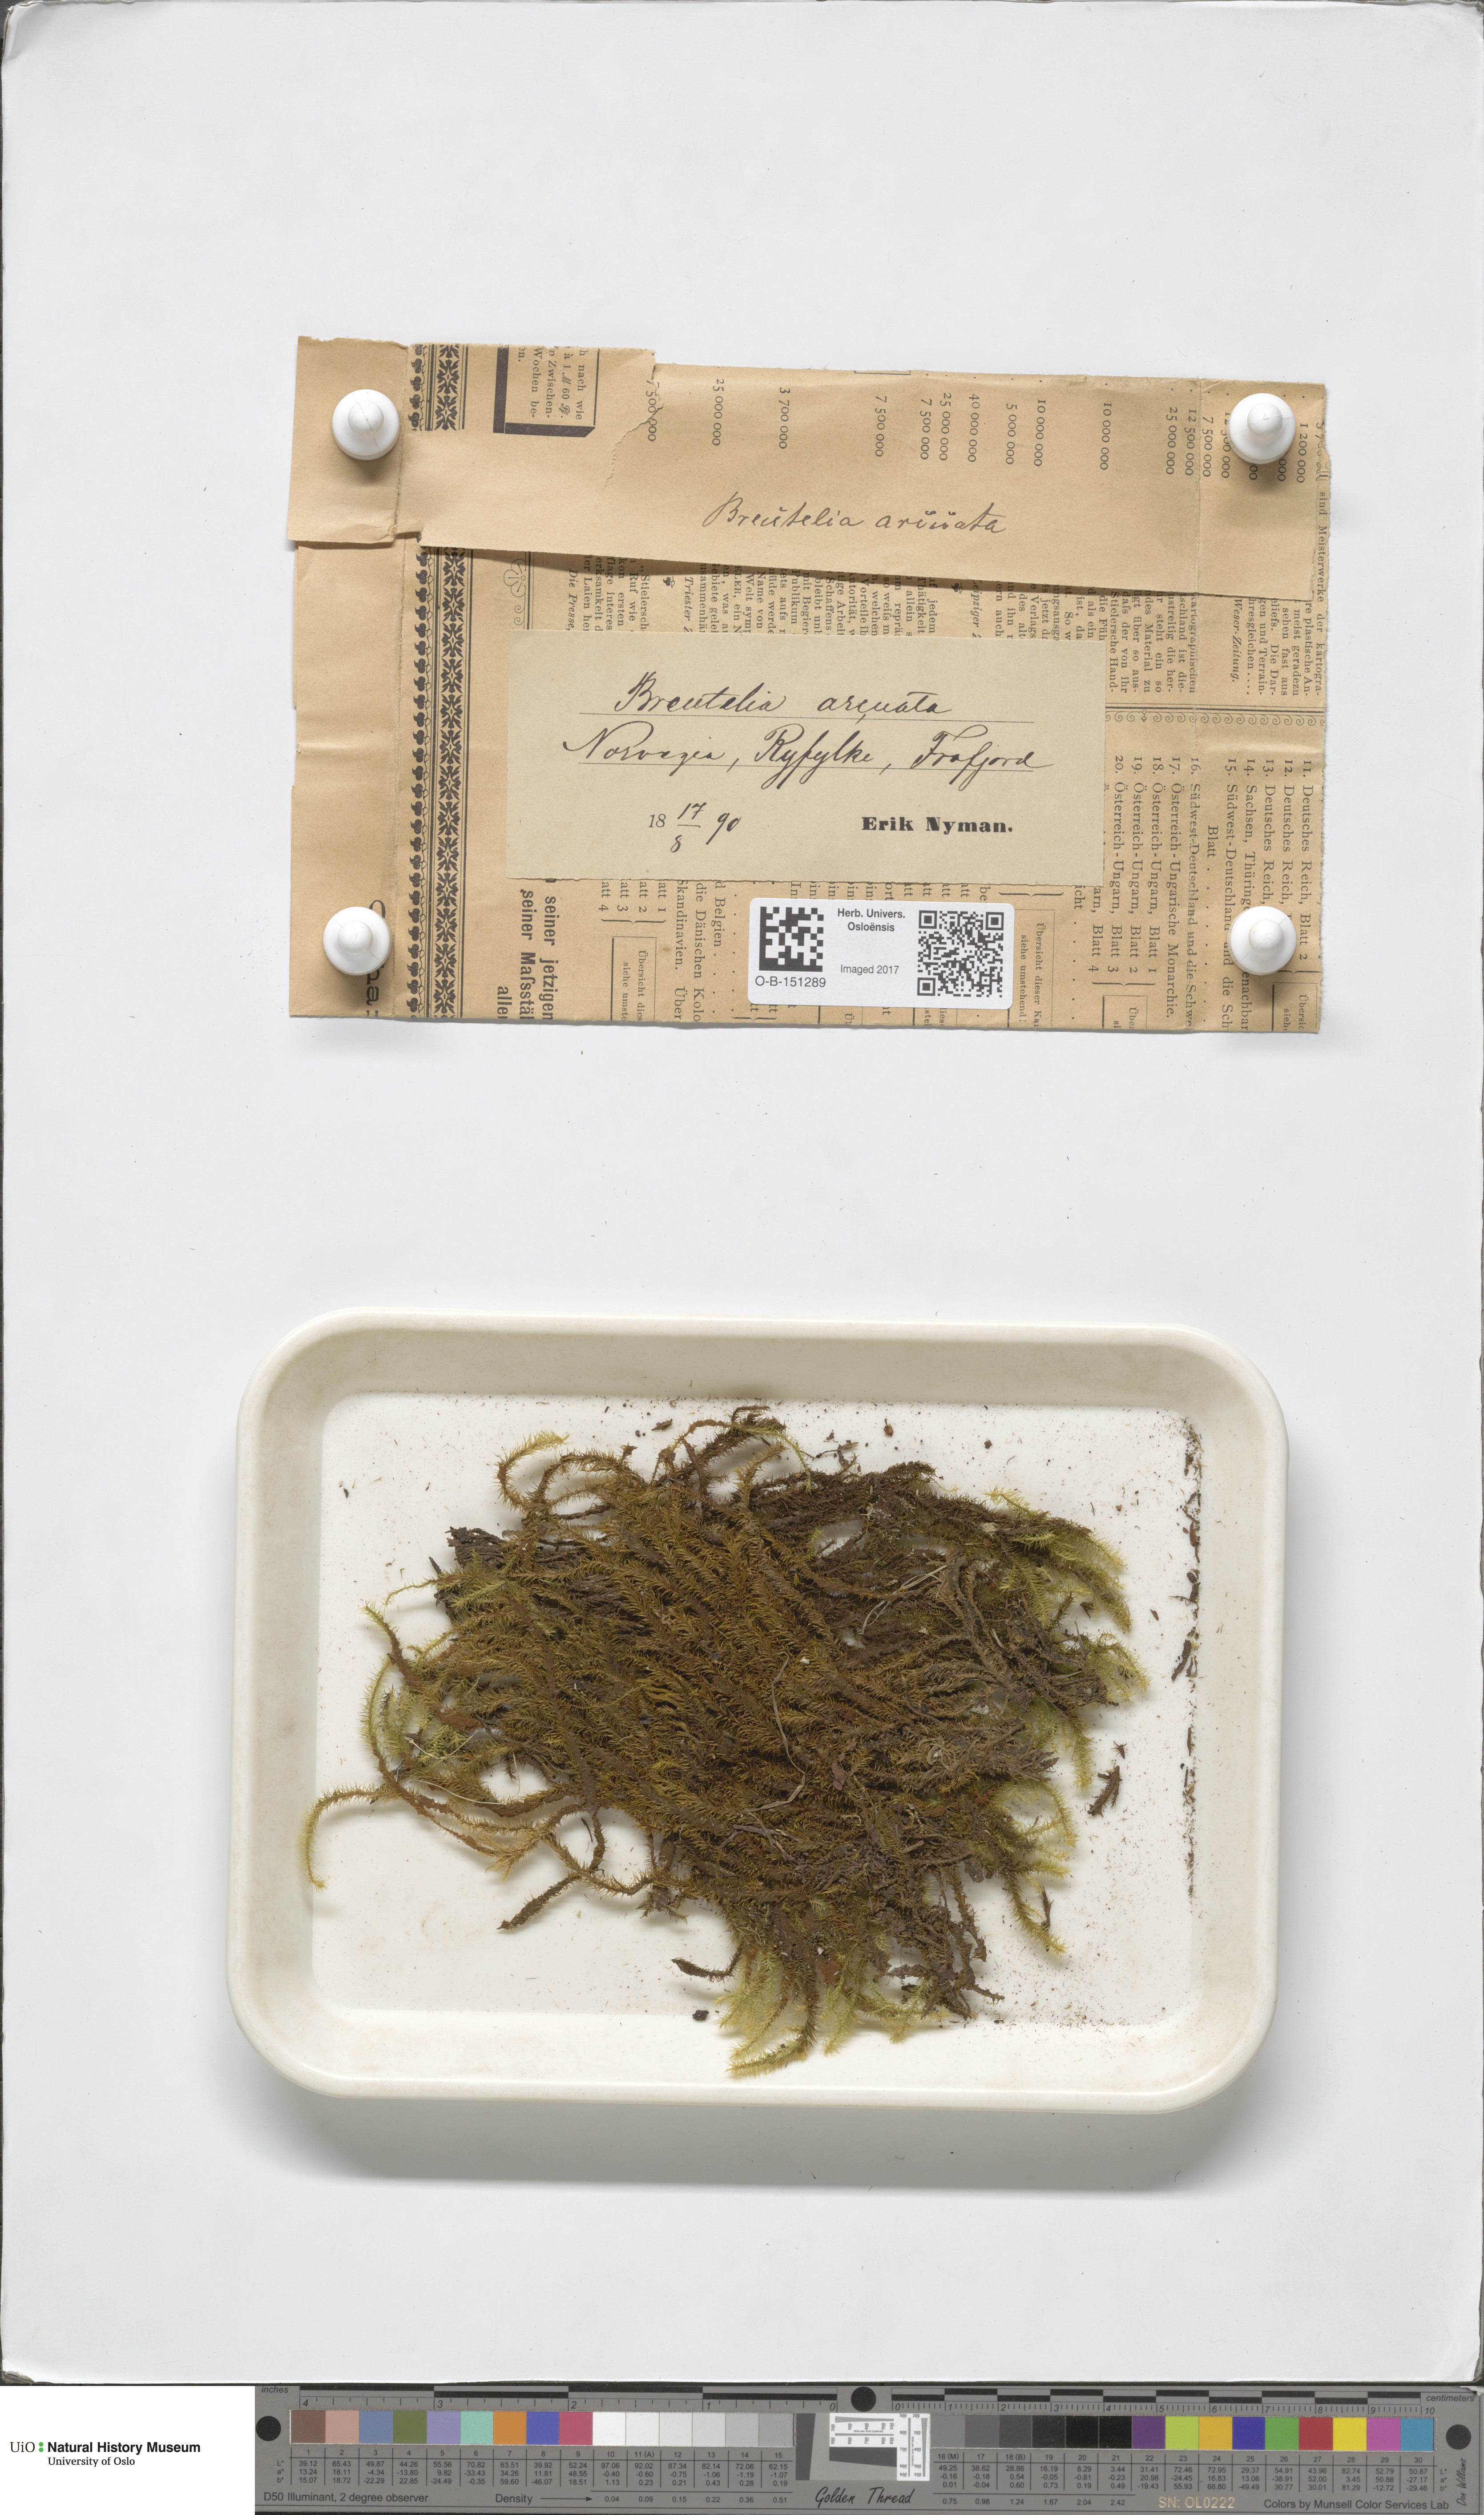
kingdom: Plantae
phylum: Bryophyta
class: Bryopsida
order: Bartramiales
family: Bartramiaceae
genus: Breutelia
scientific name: Breutelia chrysocoma
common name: Bottle-brush moss
